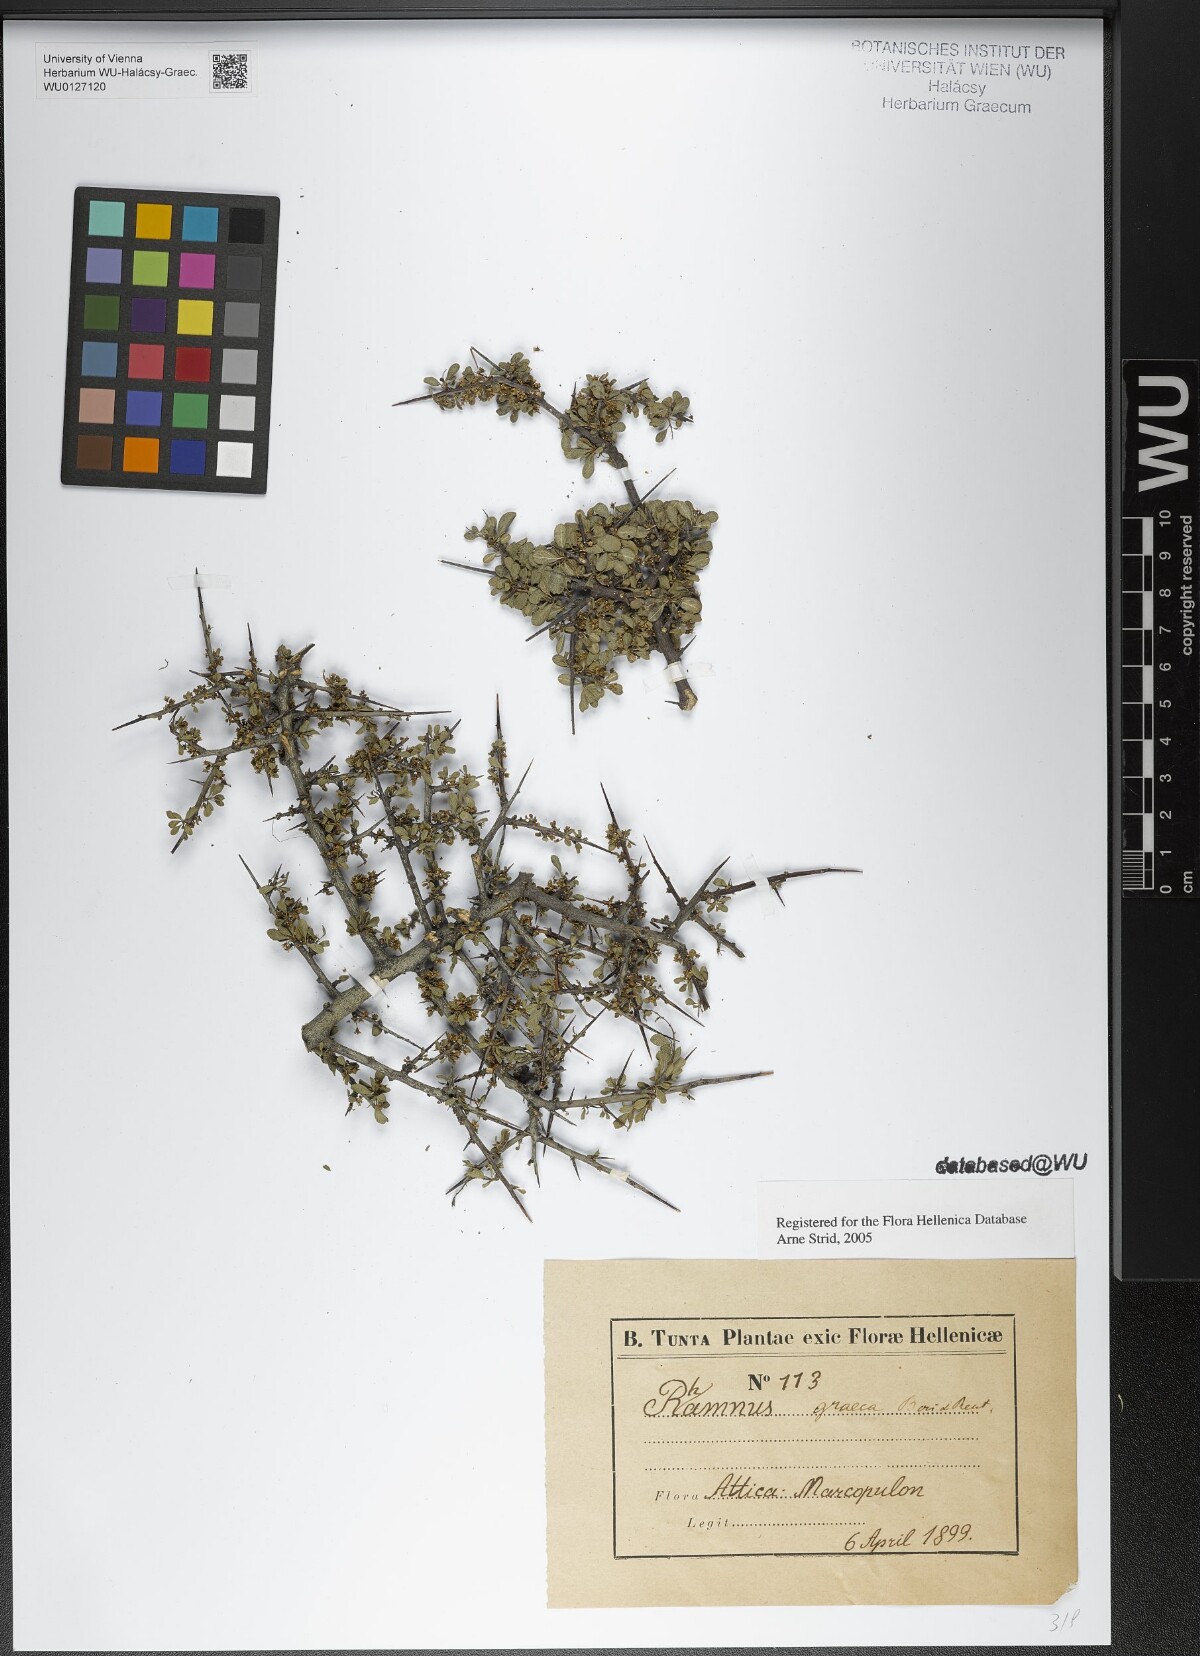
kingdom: Plantae
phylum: Tracheophyta
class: Magnoliopsida
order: Rosales
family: Rhamnaceae
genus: Rhamnus
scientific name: Rhamnus
